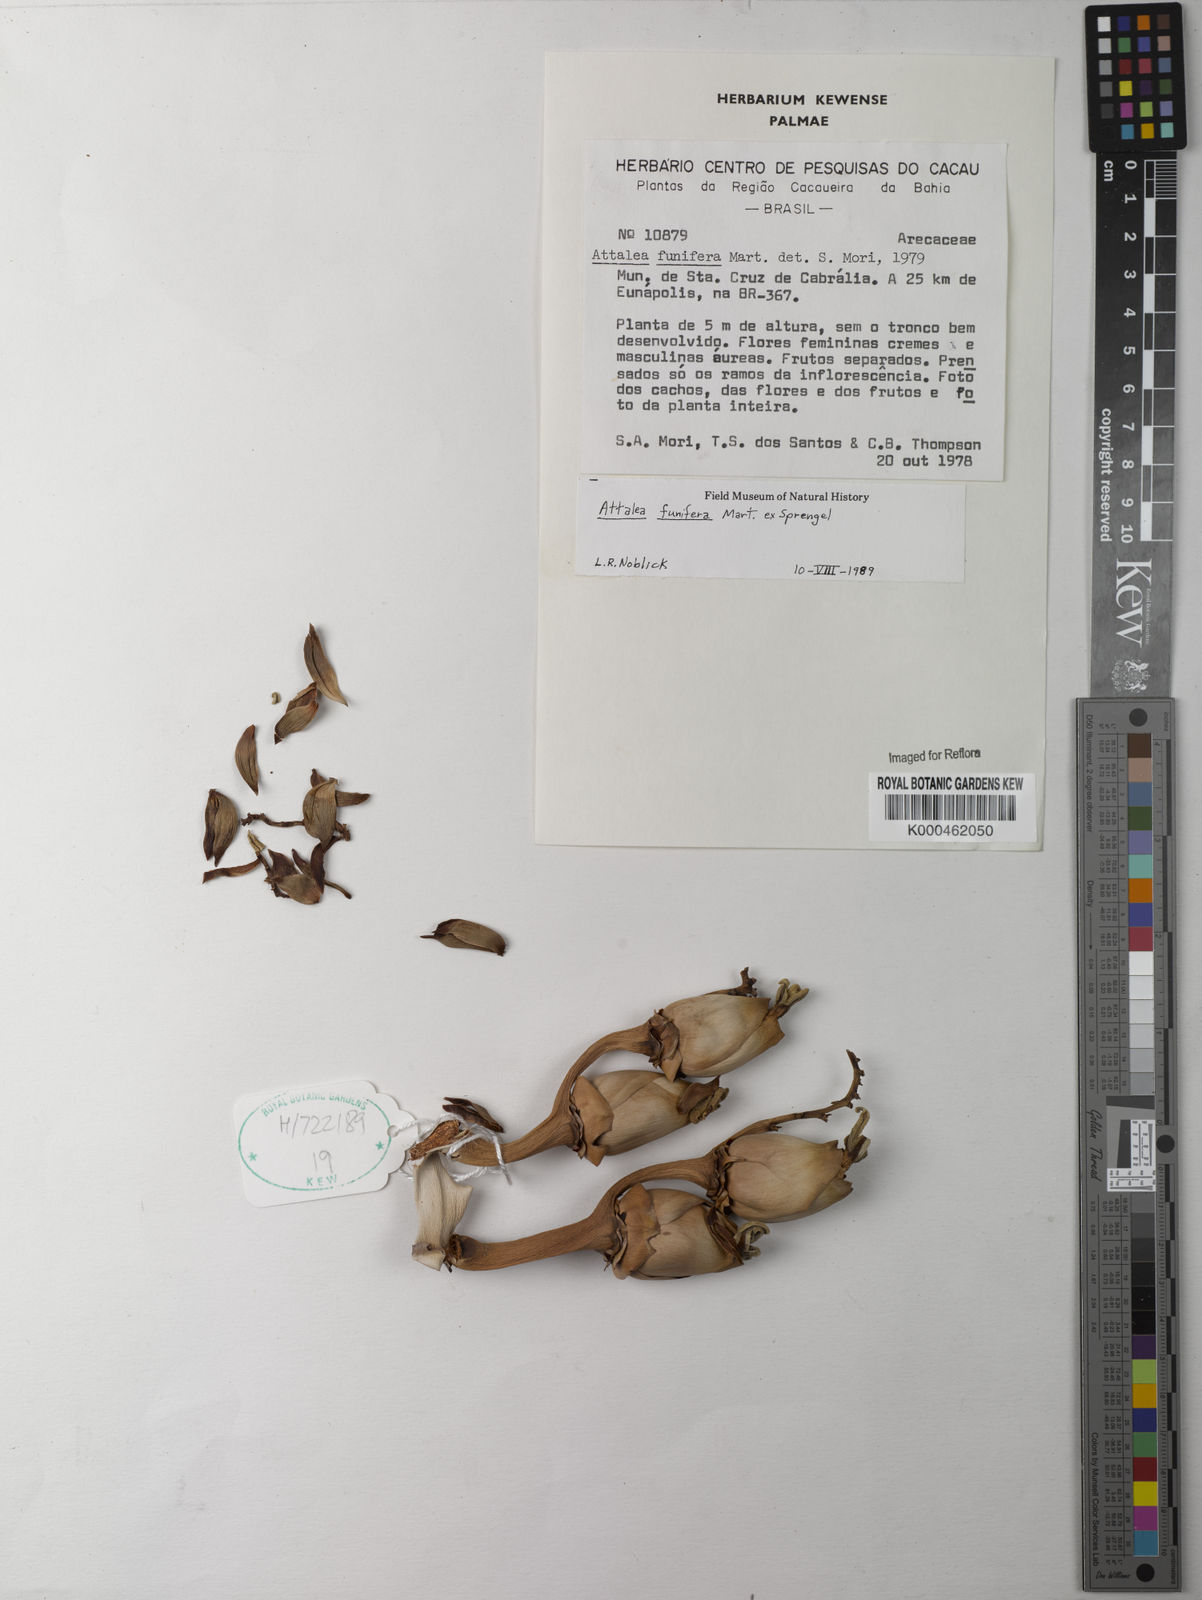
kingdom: Plantae
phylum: Tracheophyta
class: Liliopsida
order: Arecales
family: Arecaceae
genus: Attalea
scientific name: Attalea funifera
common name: Piassava palm
